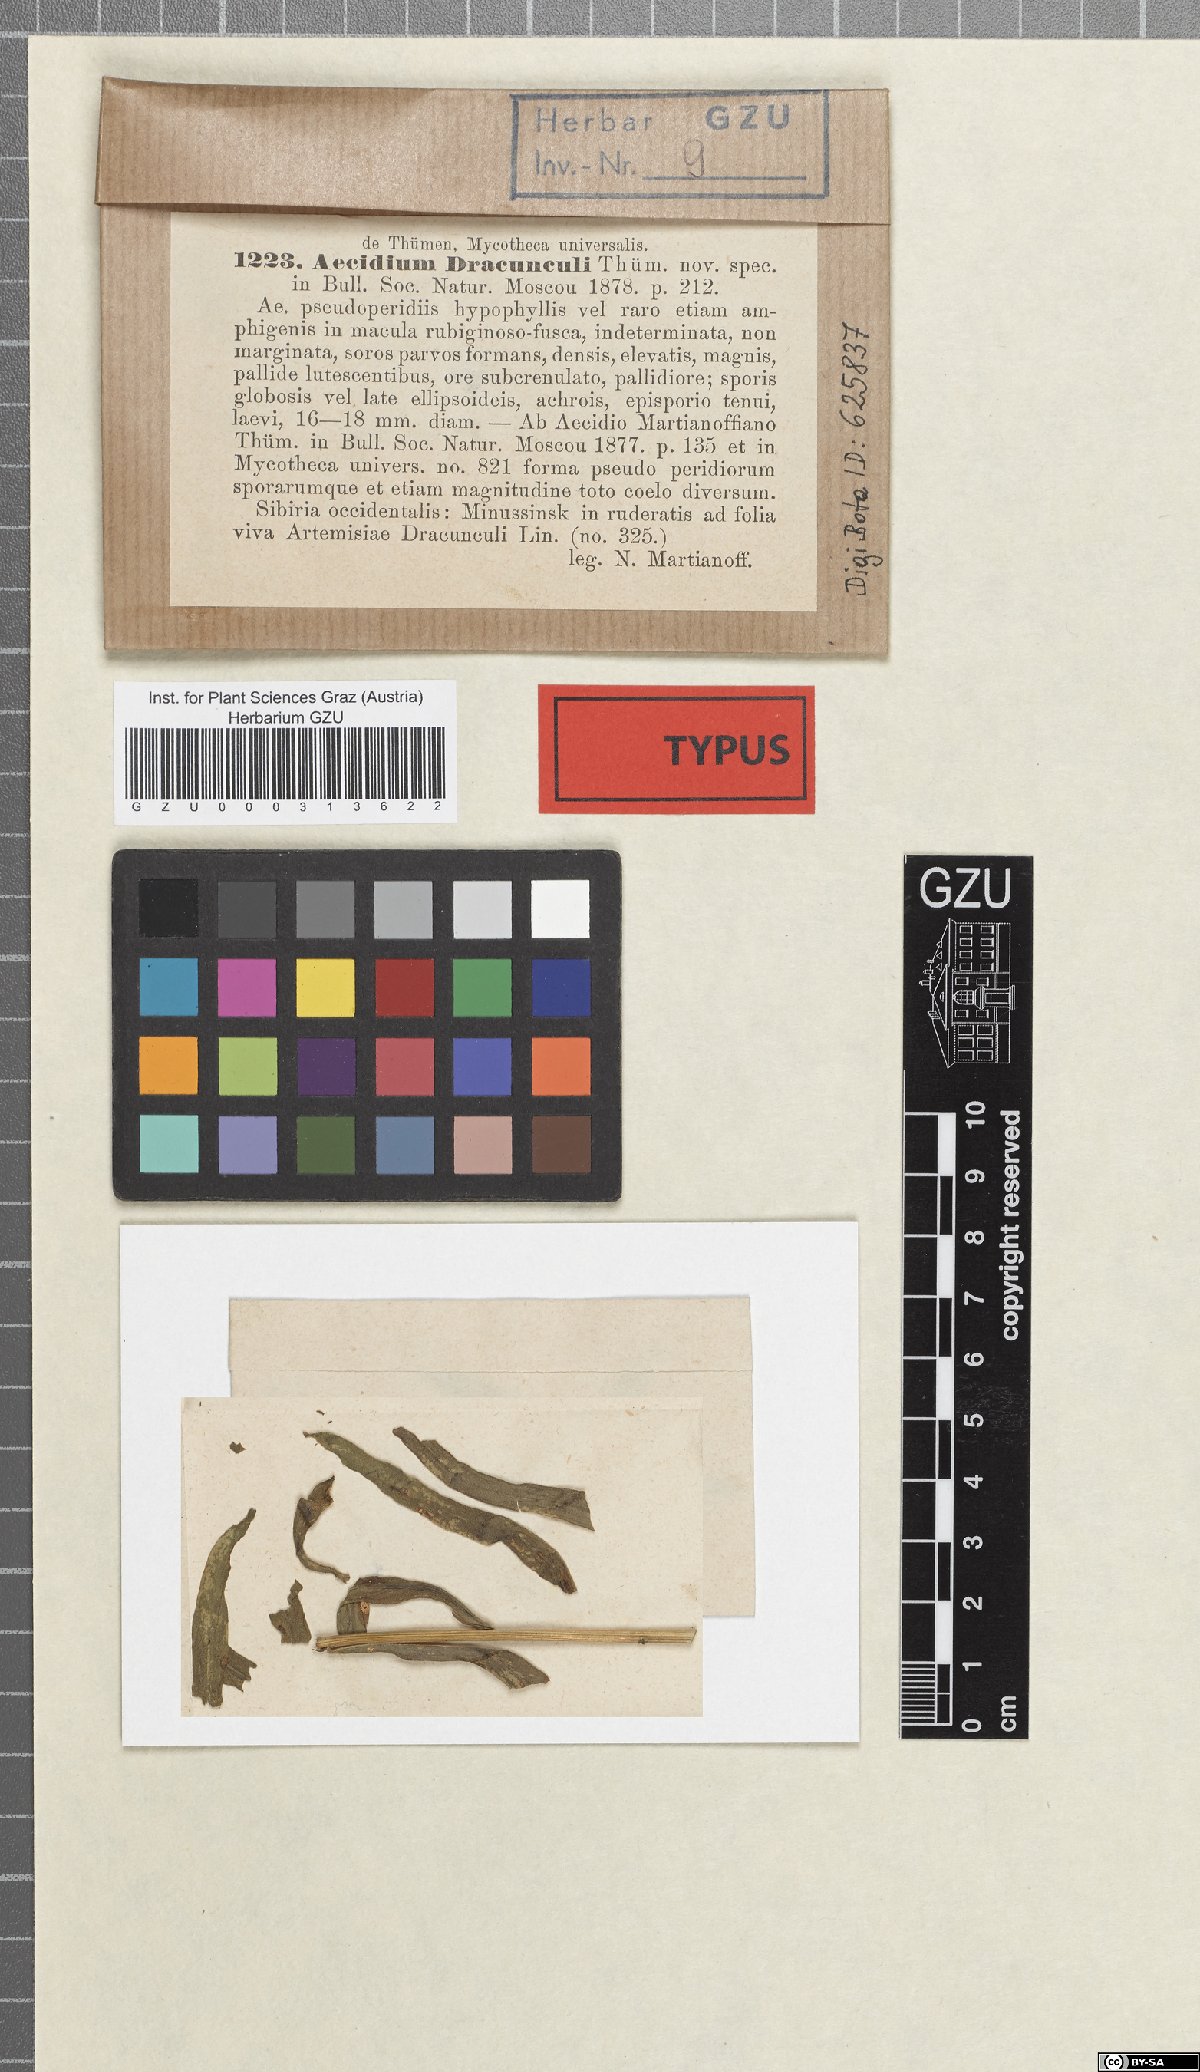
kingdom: Fungi
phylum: Basidiomycota
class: Pucciniomycetes
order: Pucciniales
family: Pucciniaceae
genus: Puccinia
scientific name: Puccinia universalis
